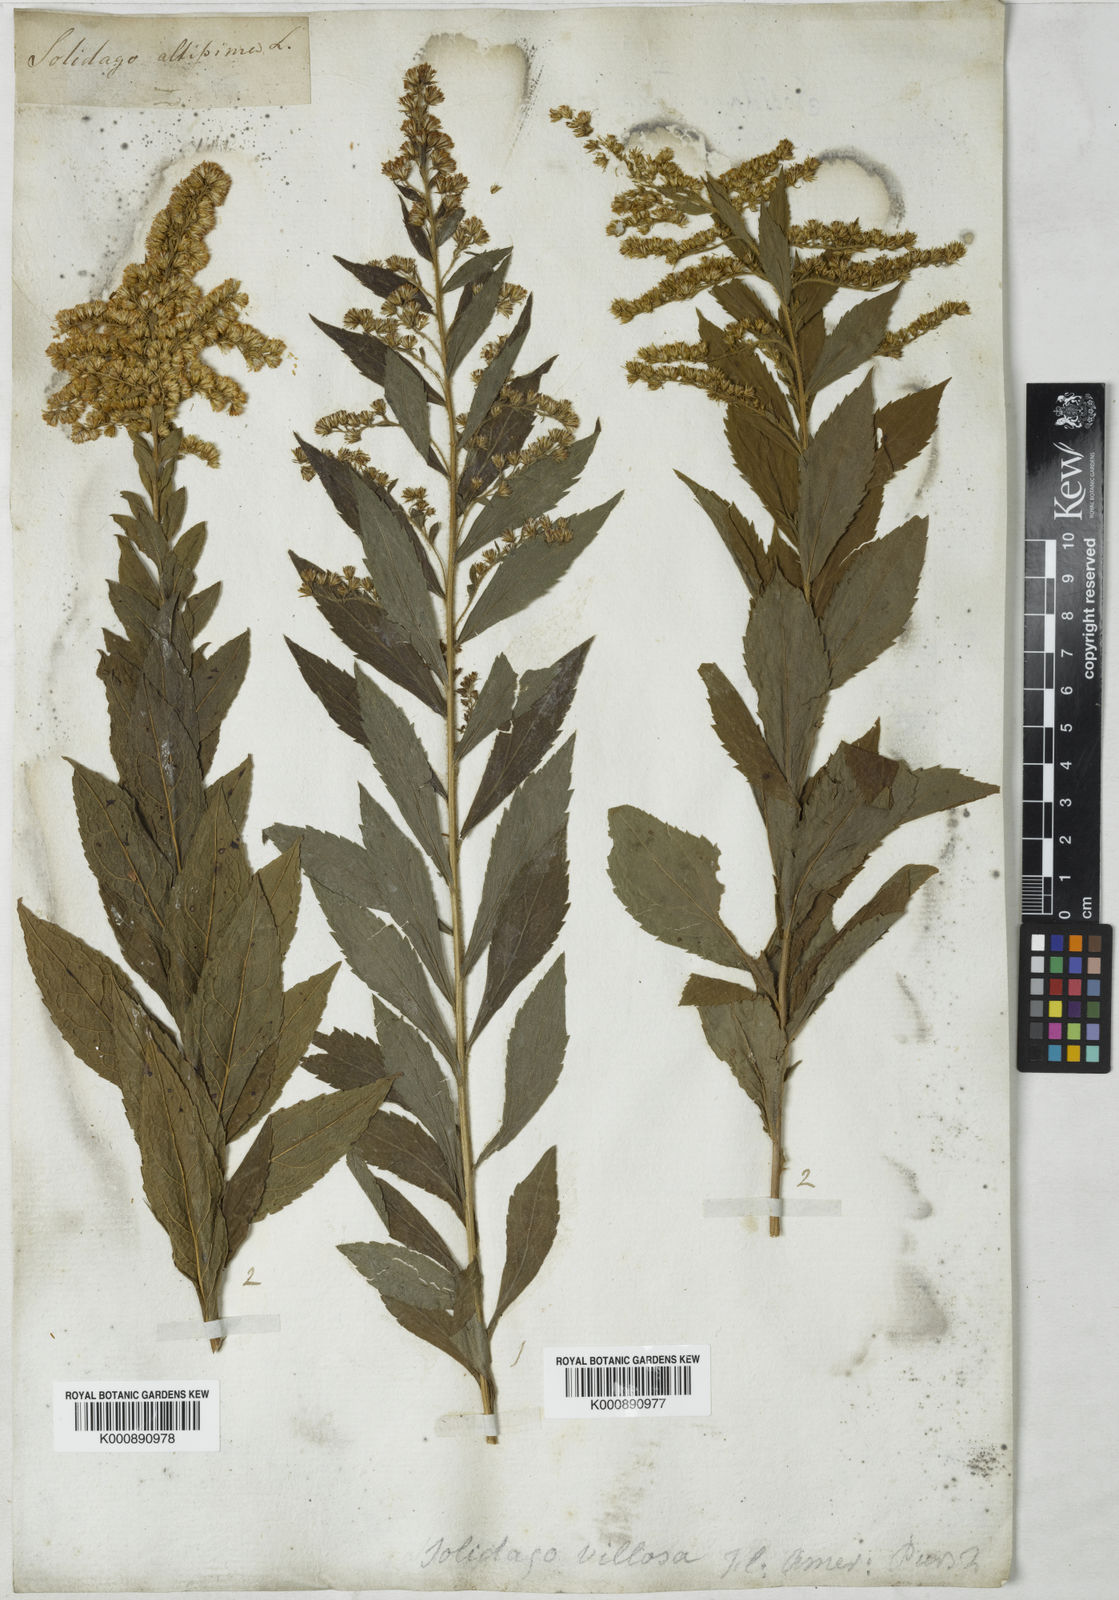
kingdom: Plantae
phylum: Tracheophyta
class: Magnoliopsida
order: Asterales
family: Asteraceae
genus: Solidago
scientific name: Solidago rugosa
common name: Rough-stemmed goldenrod
